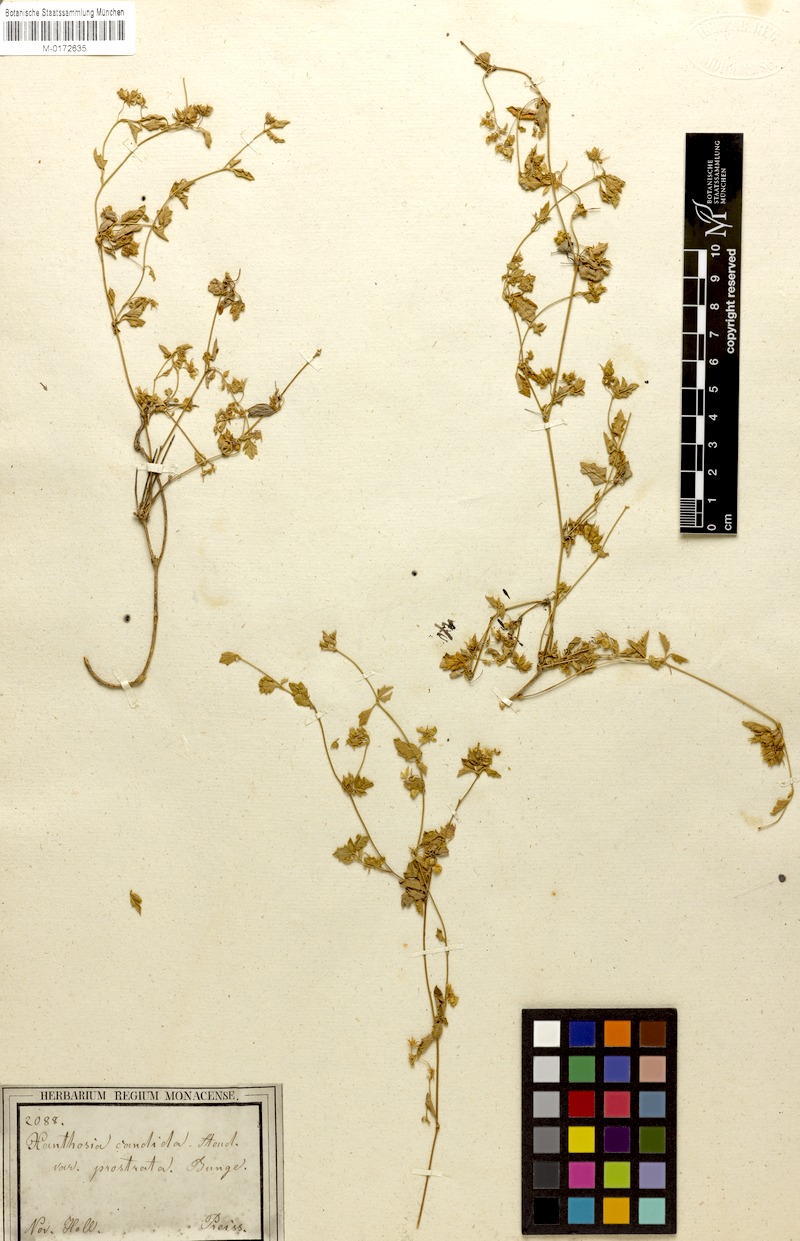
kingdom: Plantae
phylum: Tracheophyta
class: Magnoliopsida
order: Apiales
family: Apiaceae
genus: Xanthosia
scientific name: Xanthosia candida
